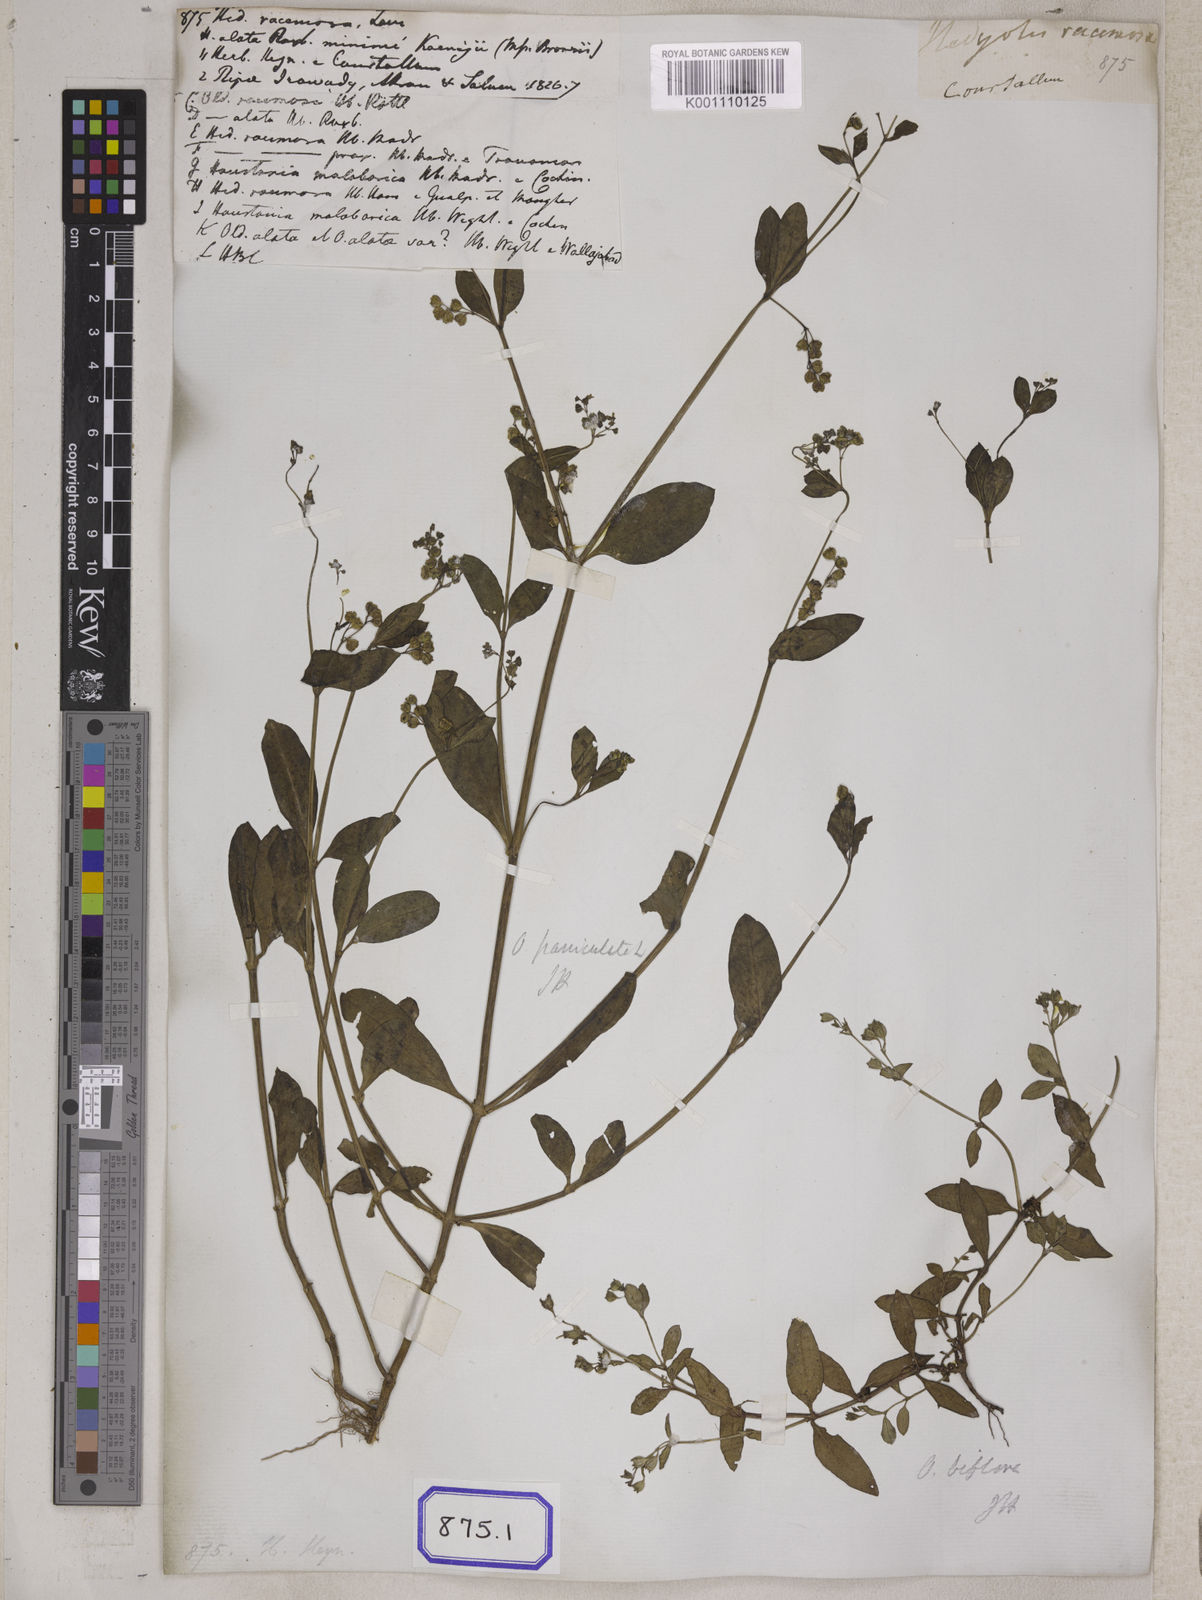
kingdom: Plantae
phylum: Tracheophyta
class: Magnoliopsida
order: Gentianales
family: Rubiaceae
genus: Leptopetalum
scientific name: Leptopetalum racemosum
